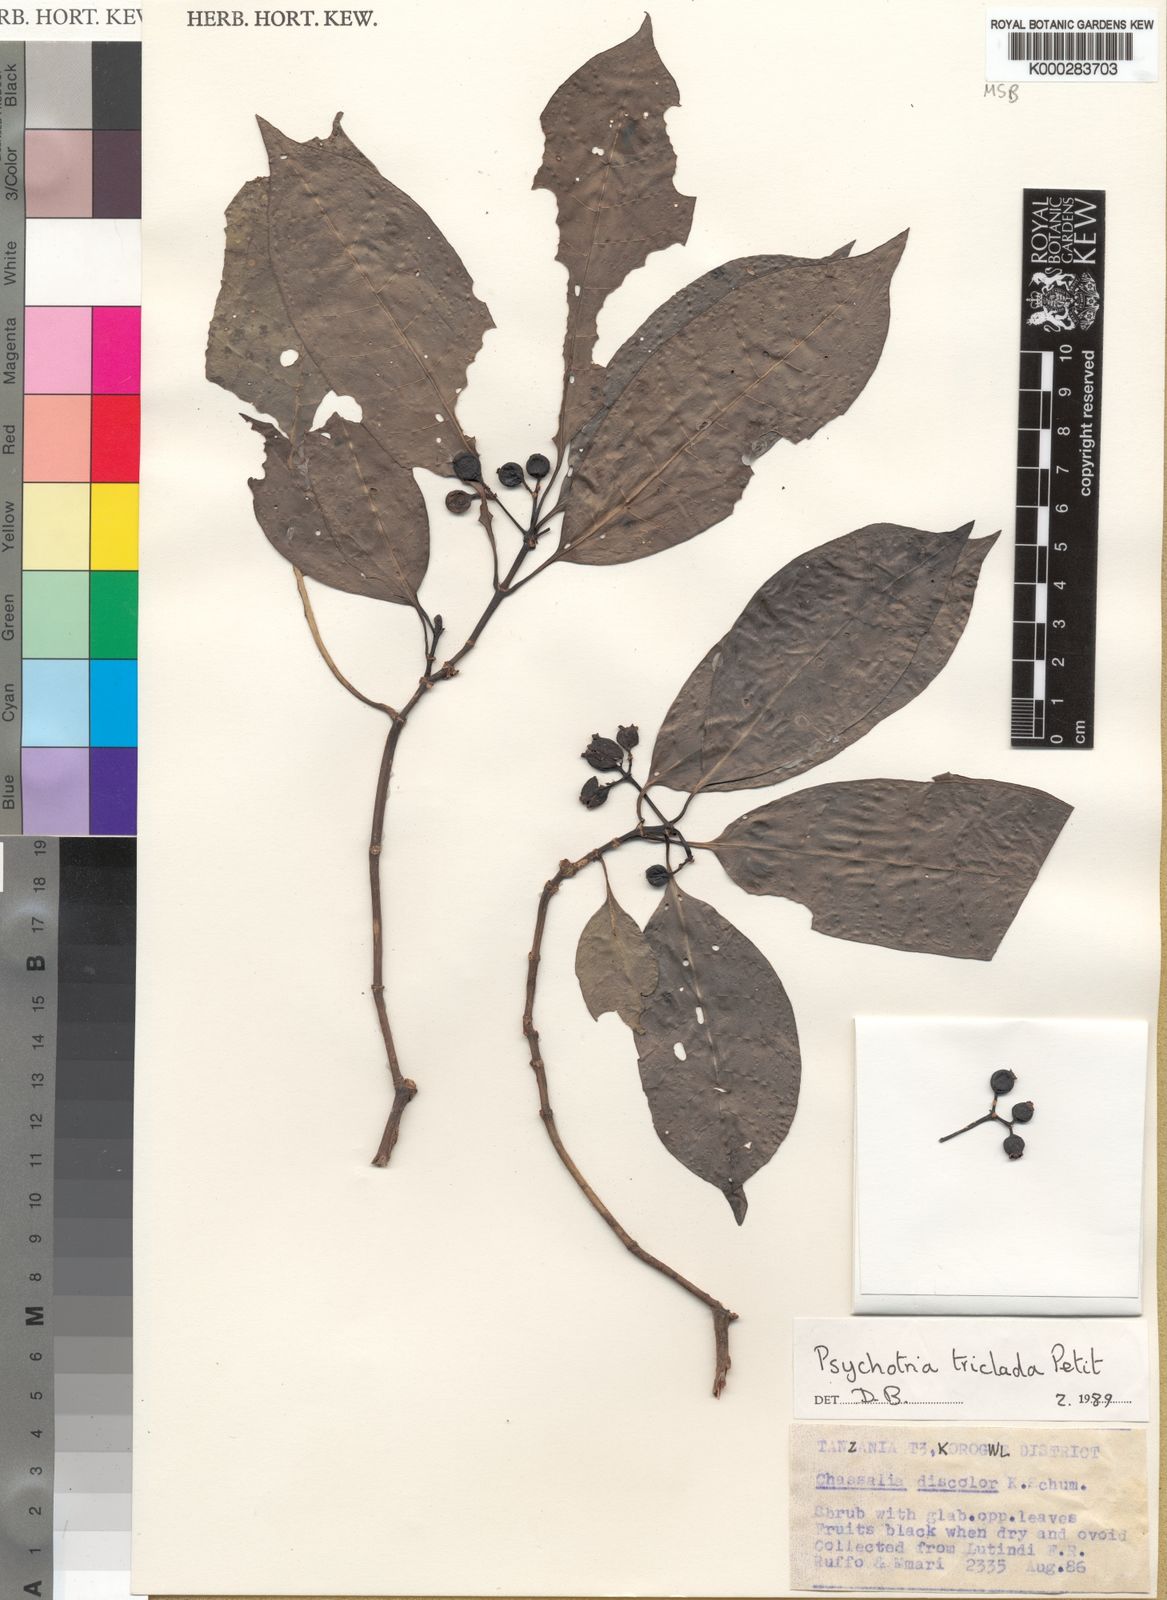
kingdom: Plantae
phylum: Tracheophyta
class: Magnoliopsida
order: Gentianales
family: Rubiaceae
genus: Psychotria
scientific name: Psychotria triclada
